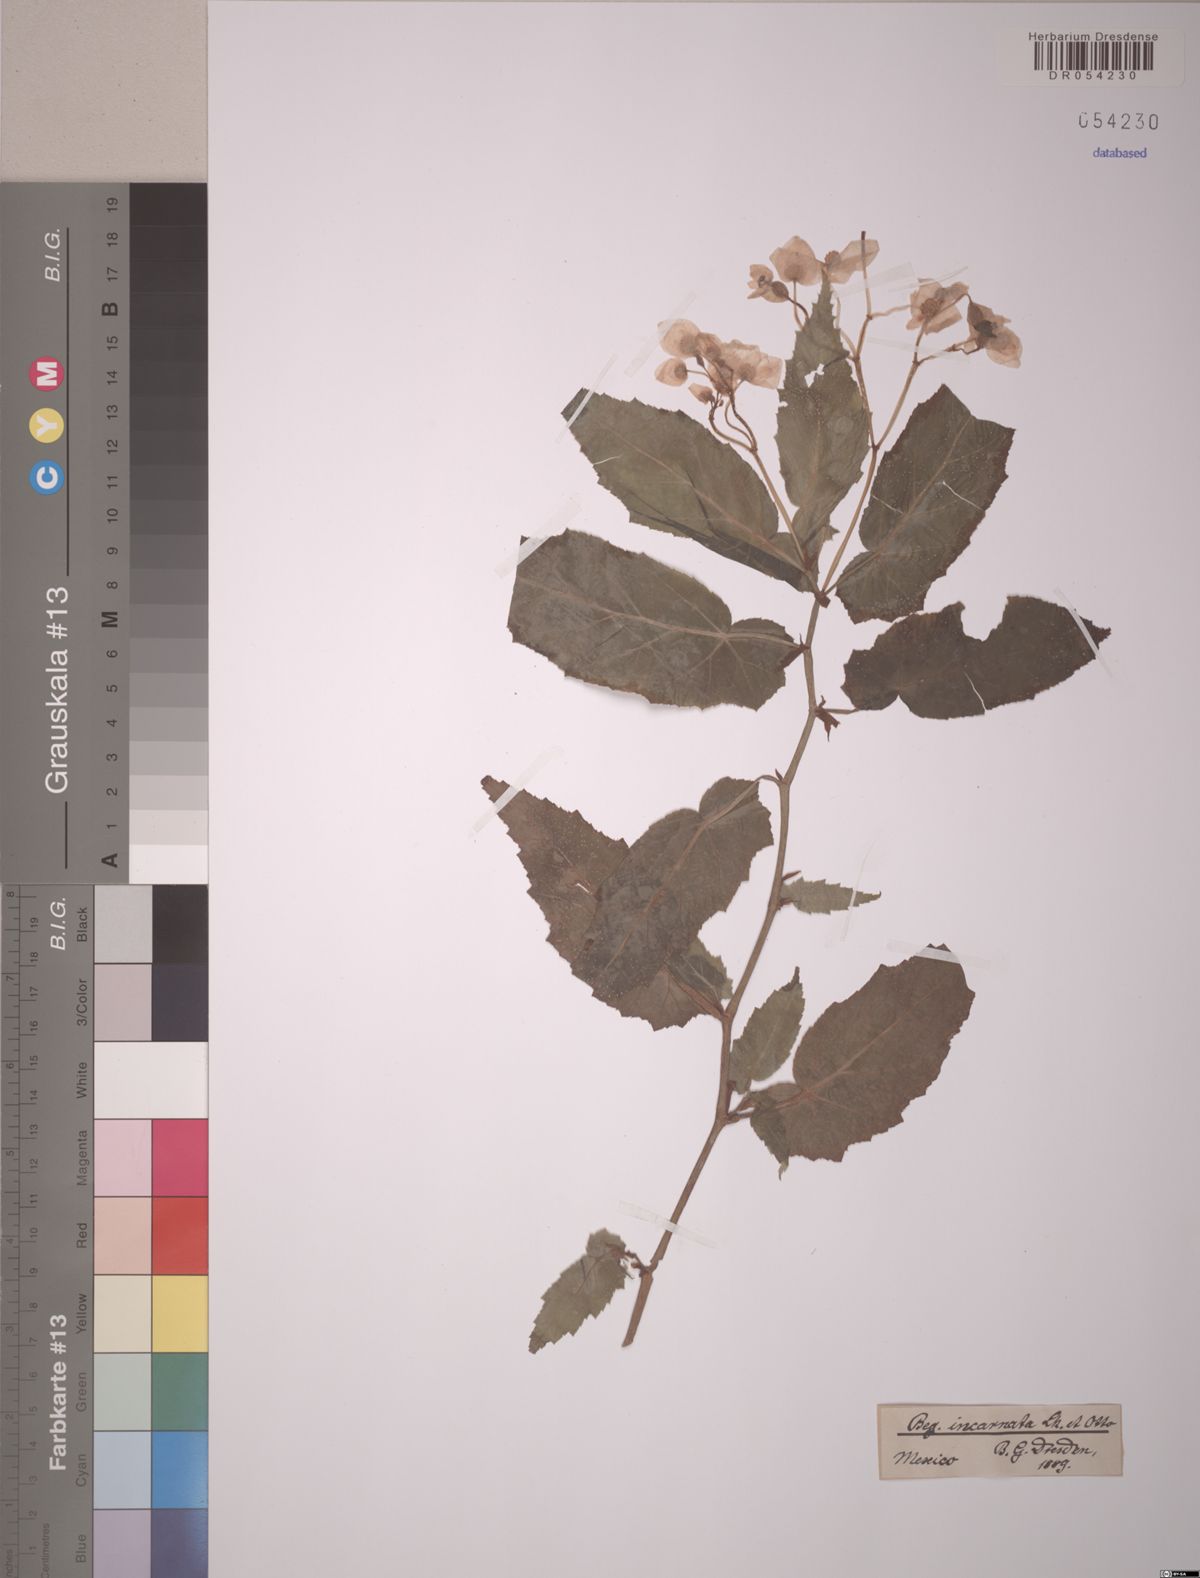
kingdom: Plantae
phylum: Tracheophyta
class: Magnoliopsida
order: Cucurbitales
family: Begoniaceae
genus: Begonia
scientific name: Begonia incarnata
